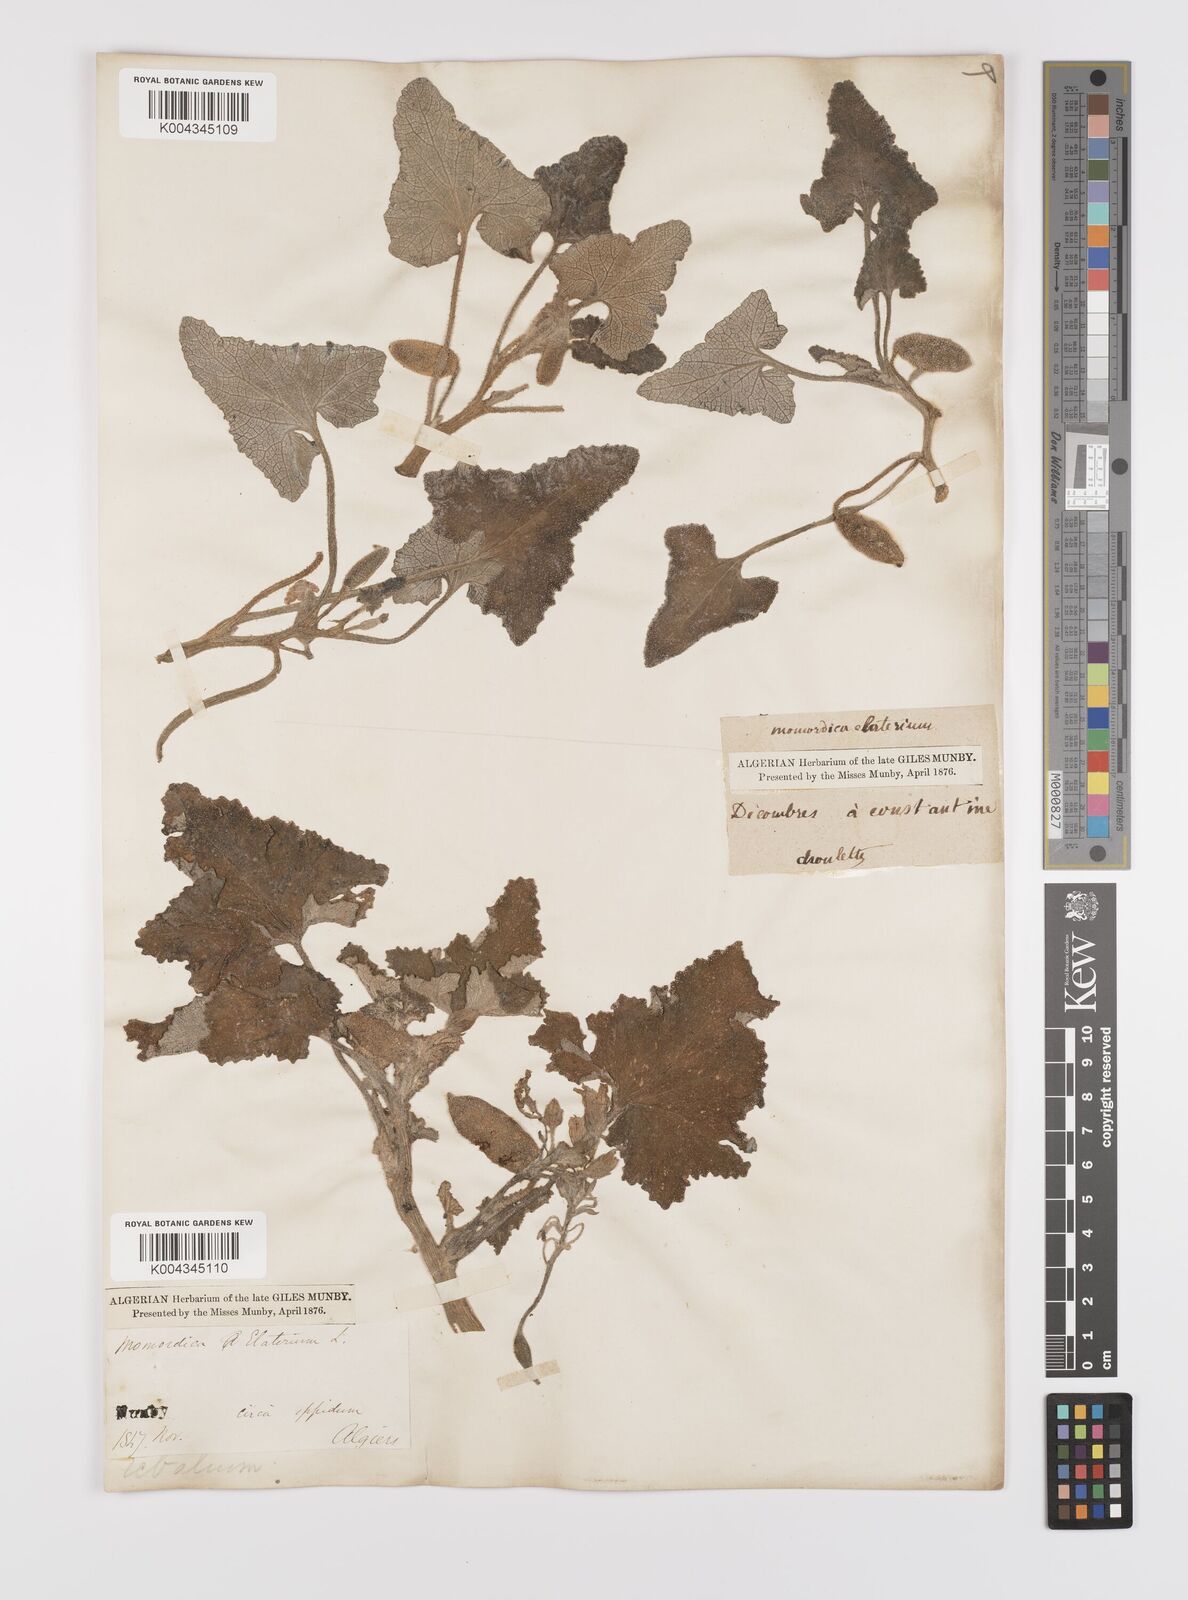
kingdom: Plantae
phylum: Tracheophyta
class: Magnoliopsida
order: Cucurbitales
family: Cucurbitaceae
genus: Ecballium
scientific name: Ecballium elaterium
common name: Squirting cucumber
